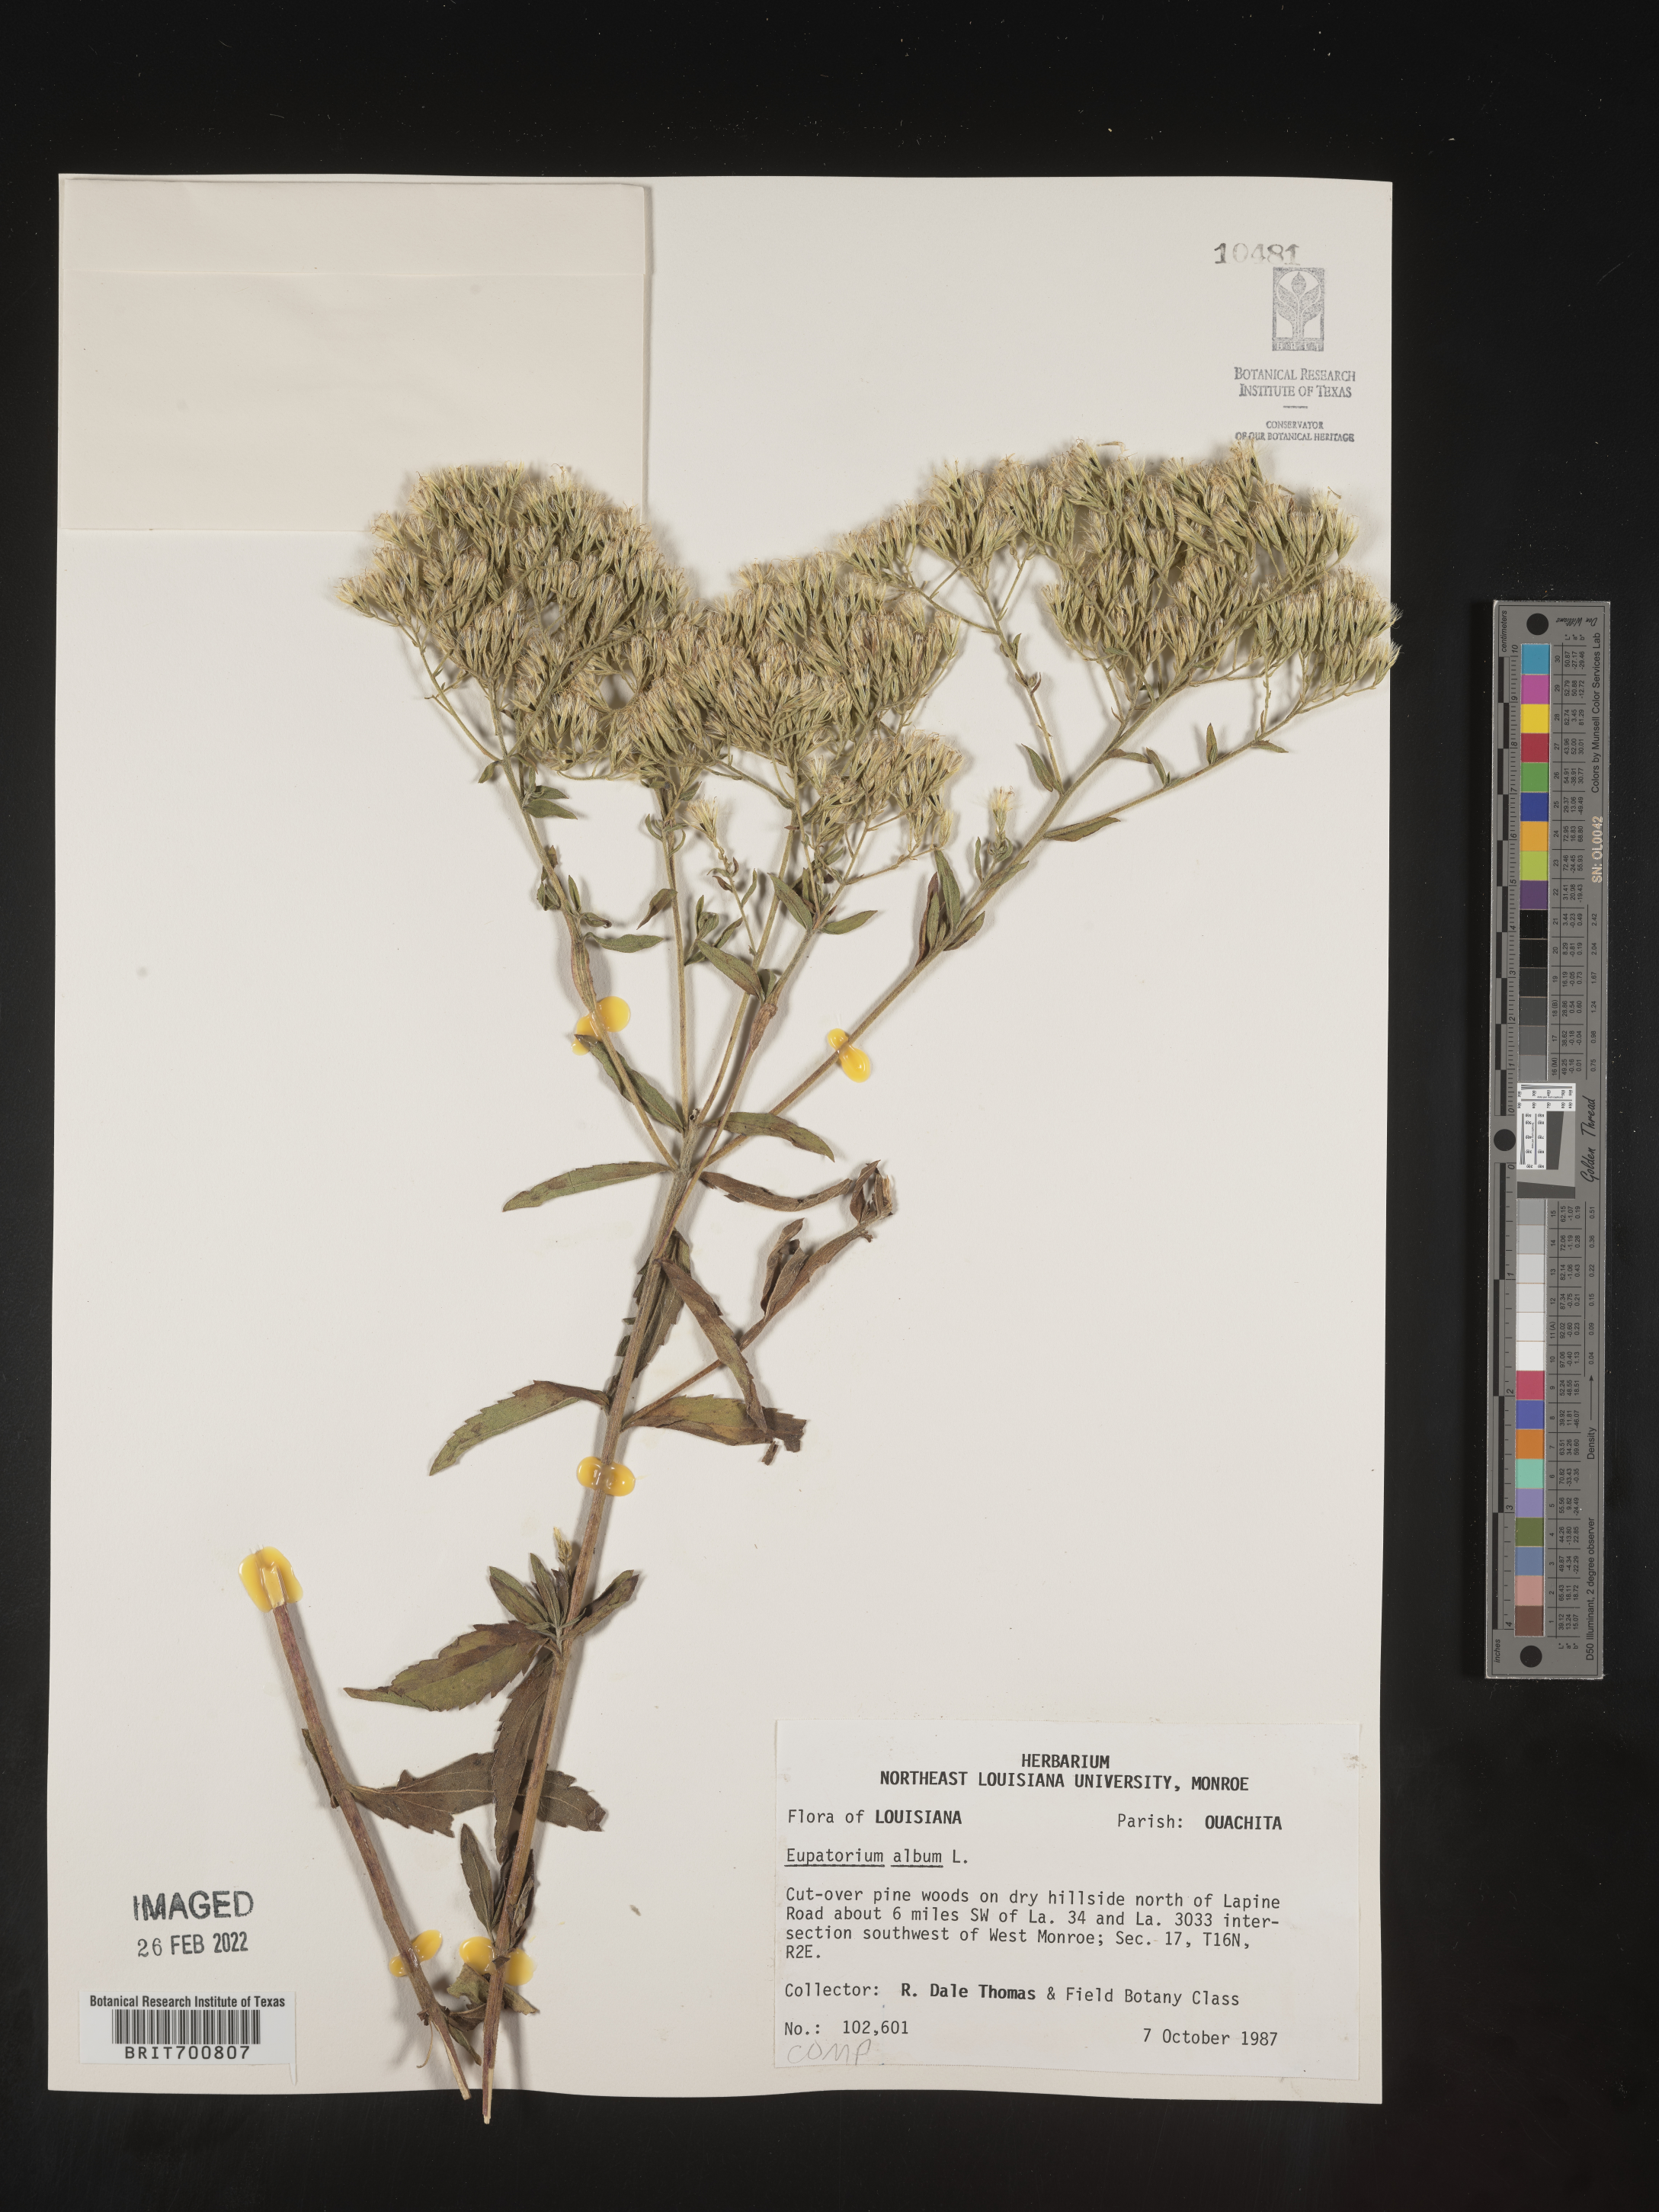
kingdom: Plantae
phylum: Tracheophyta
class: Magnoliopsida
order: Asterales
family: Asteraceae
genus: Eupatorium
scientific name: Eupatorium album
